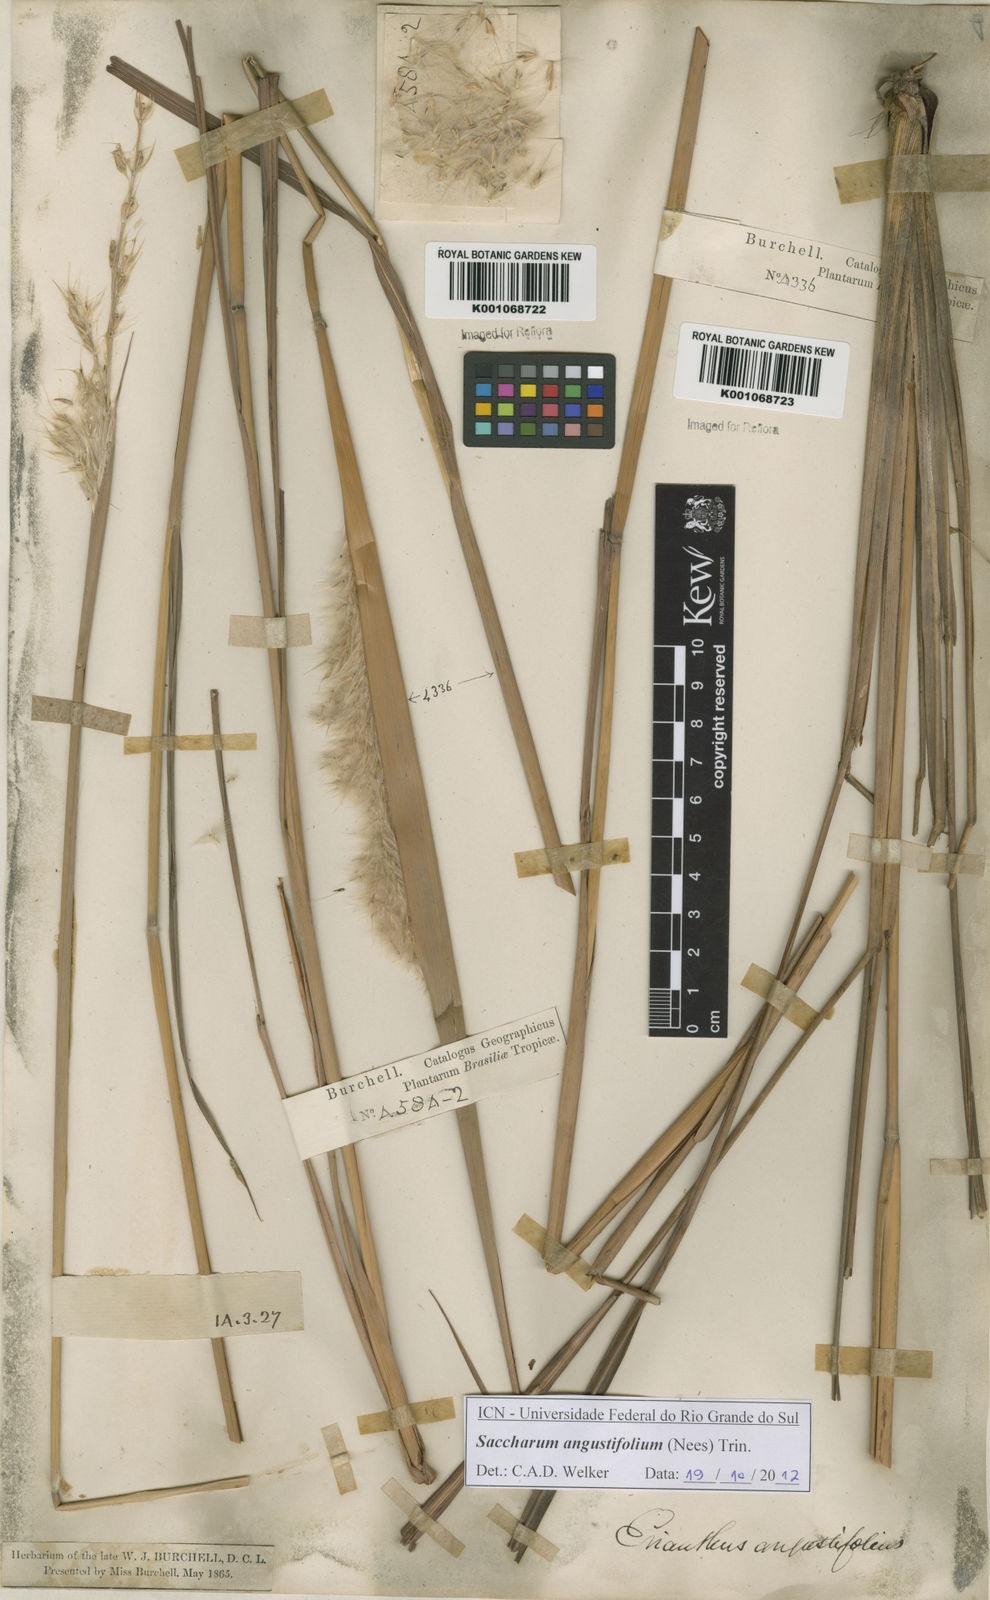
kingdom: Plantae
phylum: Tracheophyta
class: Liliopsida
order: Poales
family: Poaceae
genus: Saccharum
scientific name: Saccharum angustifolium
